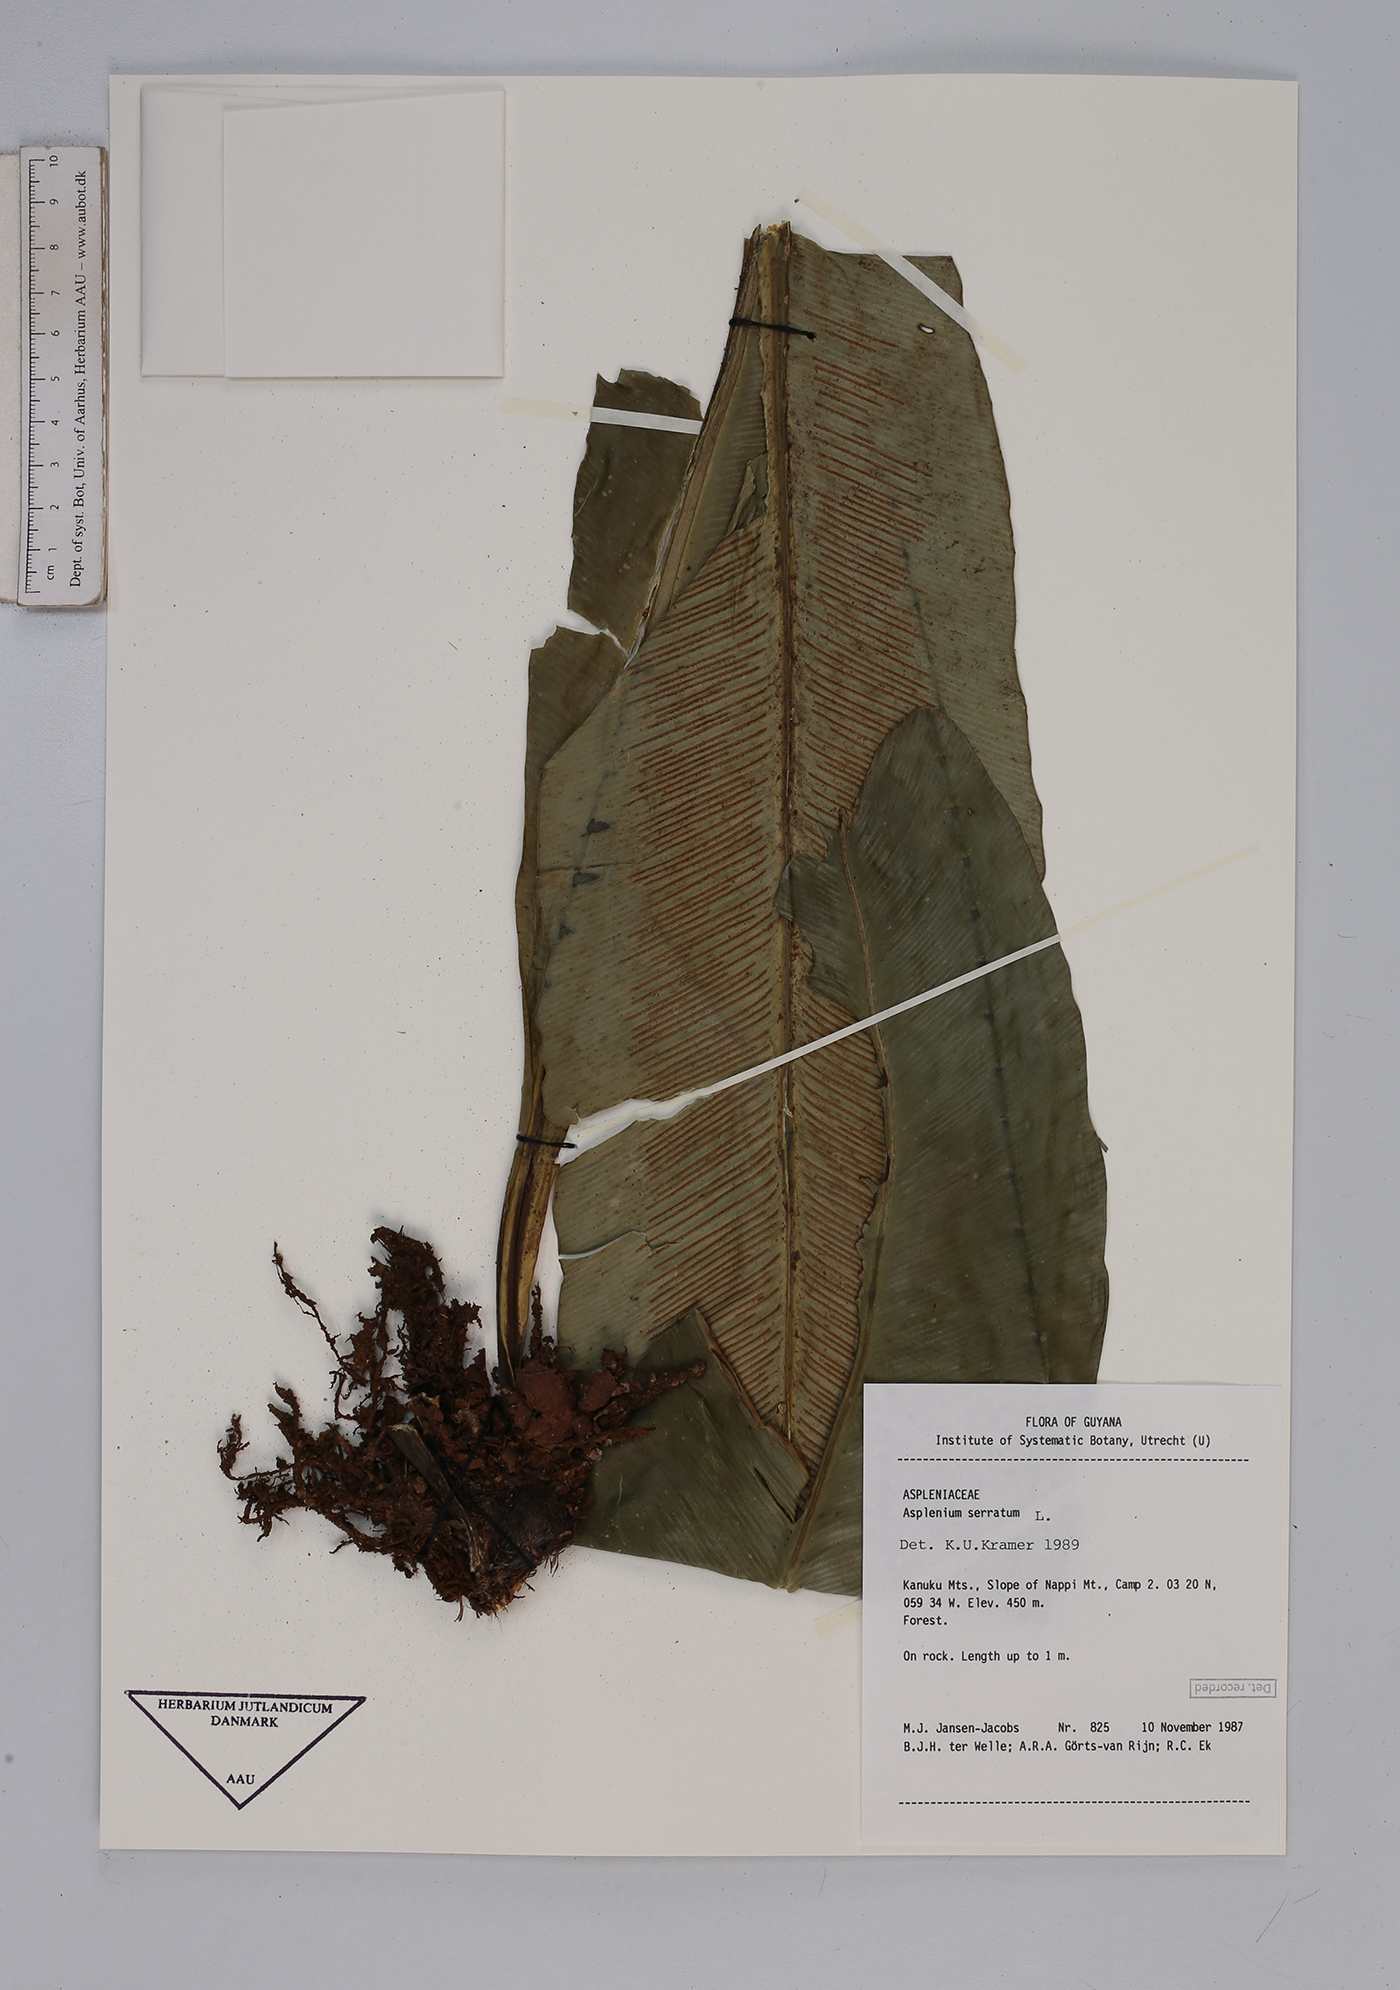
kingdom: Plantae
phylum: Tracheophyta
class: Polypodiopsida
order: Polypodiales
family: Aspleniaceae
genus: Asplenium
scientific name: Asplenium serratum
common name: Wild birdnest fern
